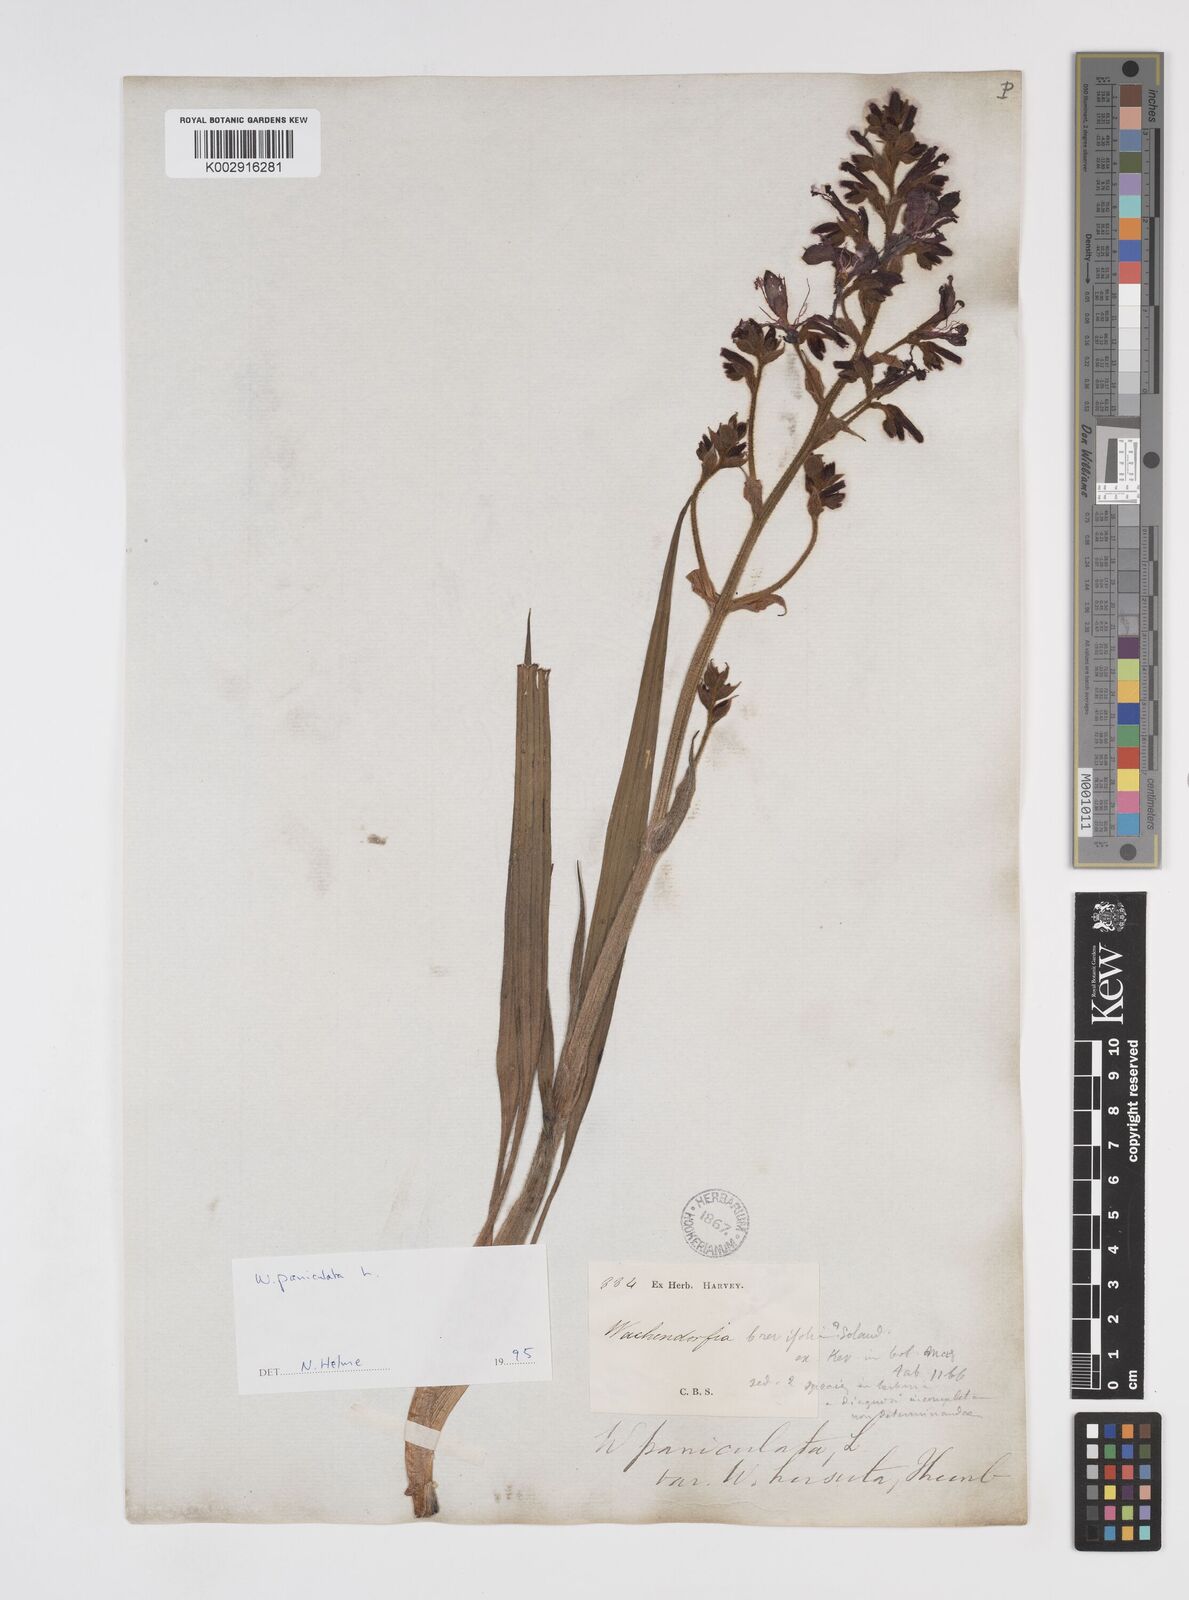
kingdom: Plantae
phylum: Tracheophyta
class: Liliopsida
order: Commelinales
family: Haemodoraceae
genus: Wachendorfia
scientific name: Wachendorfia paniculata
